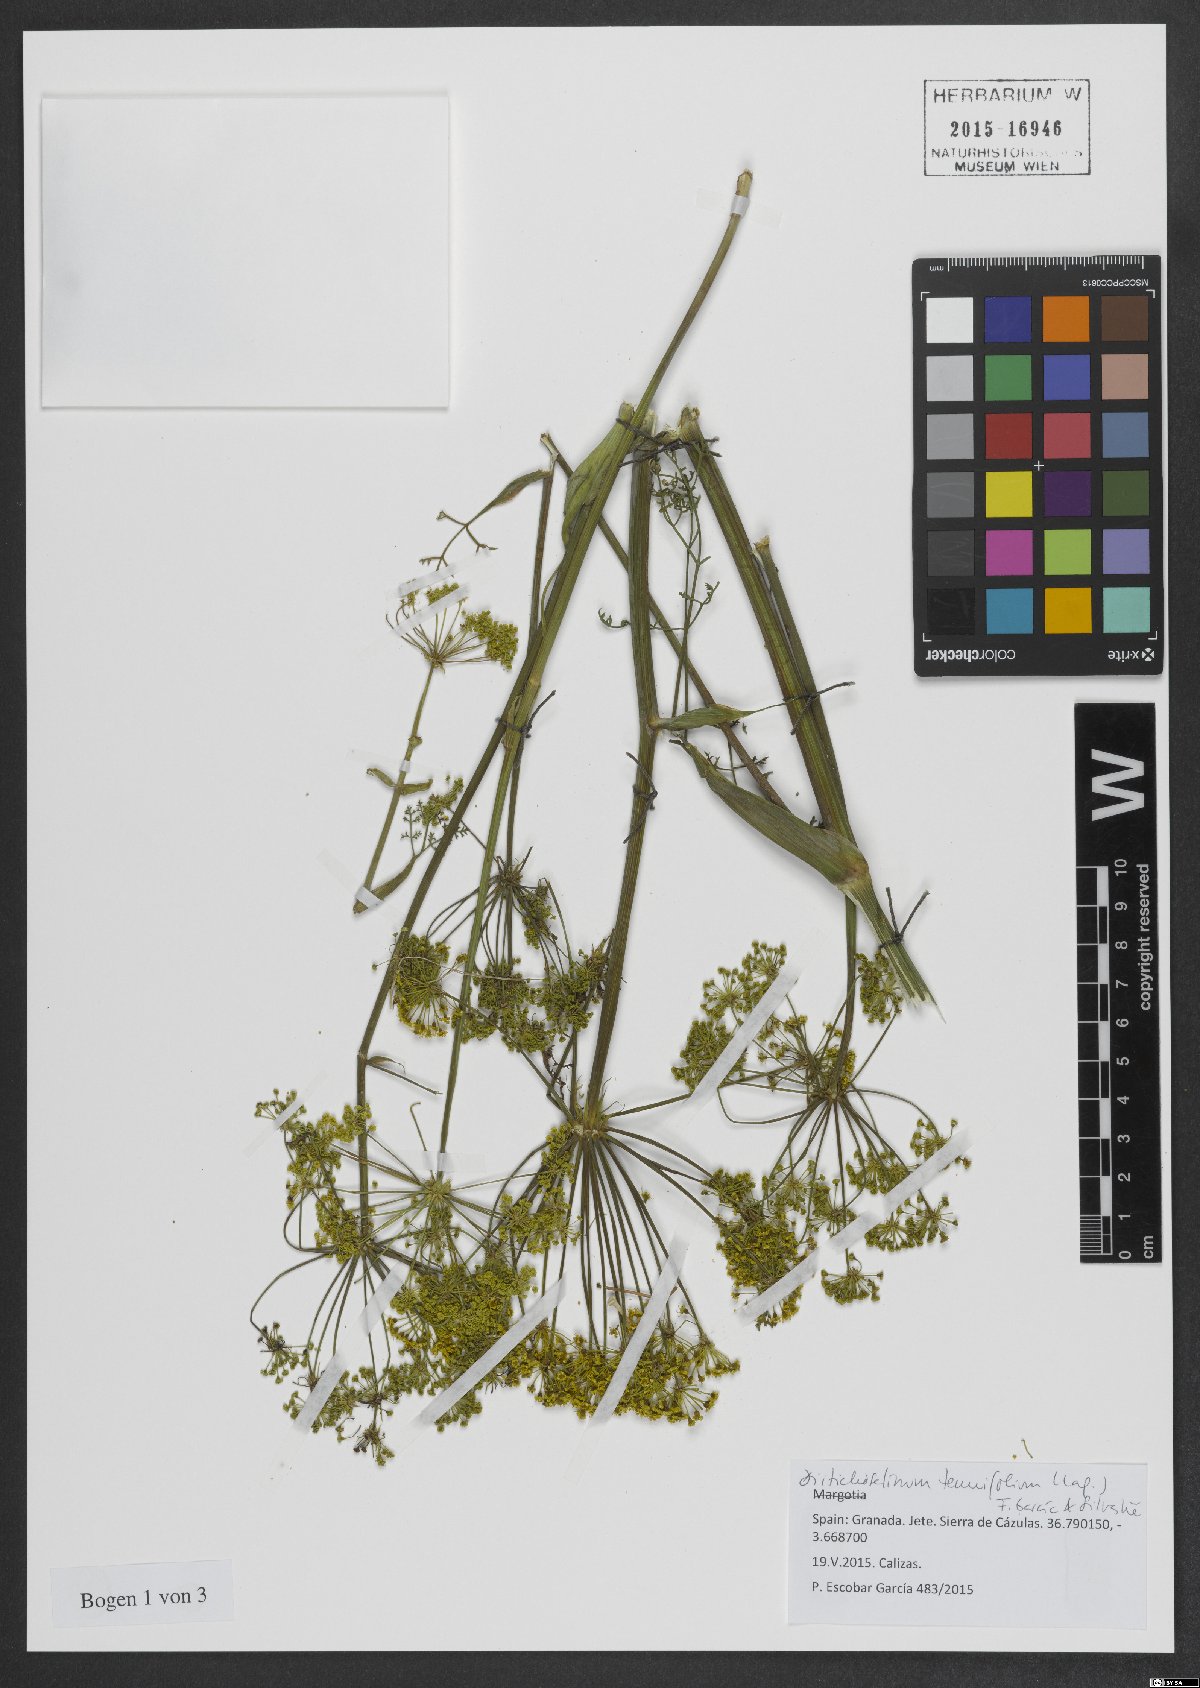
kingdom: Plantae
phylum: Tracheophyta
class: Magnoliopsida
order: Apiales
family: Apiaceae
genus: Thapsia
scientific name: Thapsia tenuifolia
